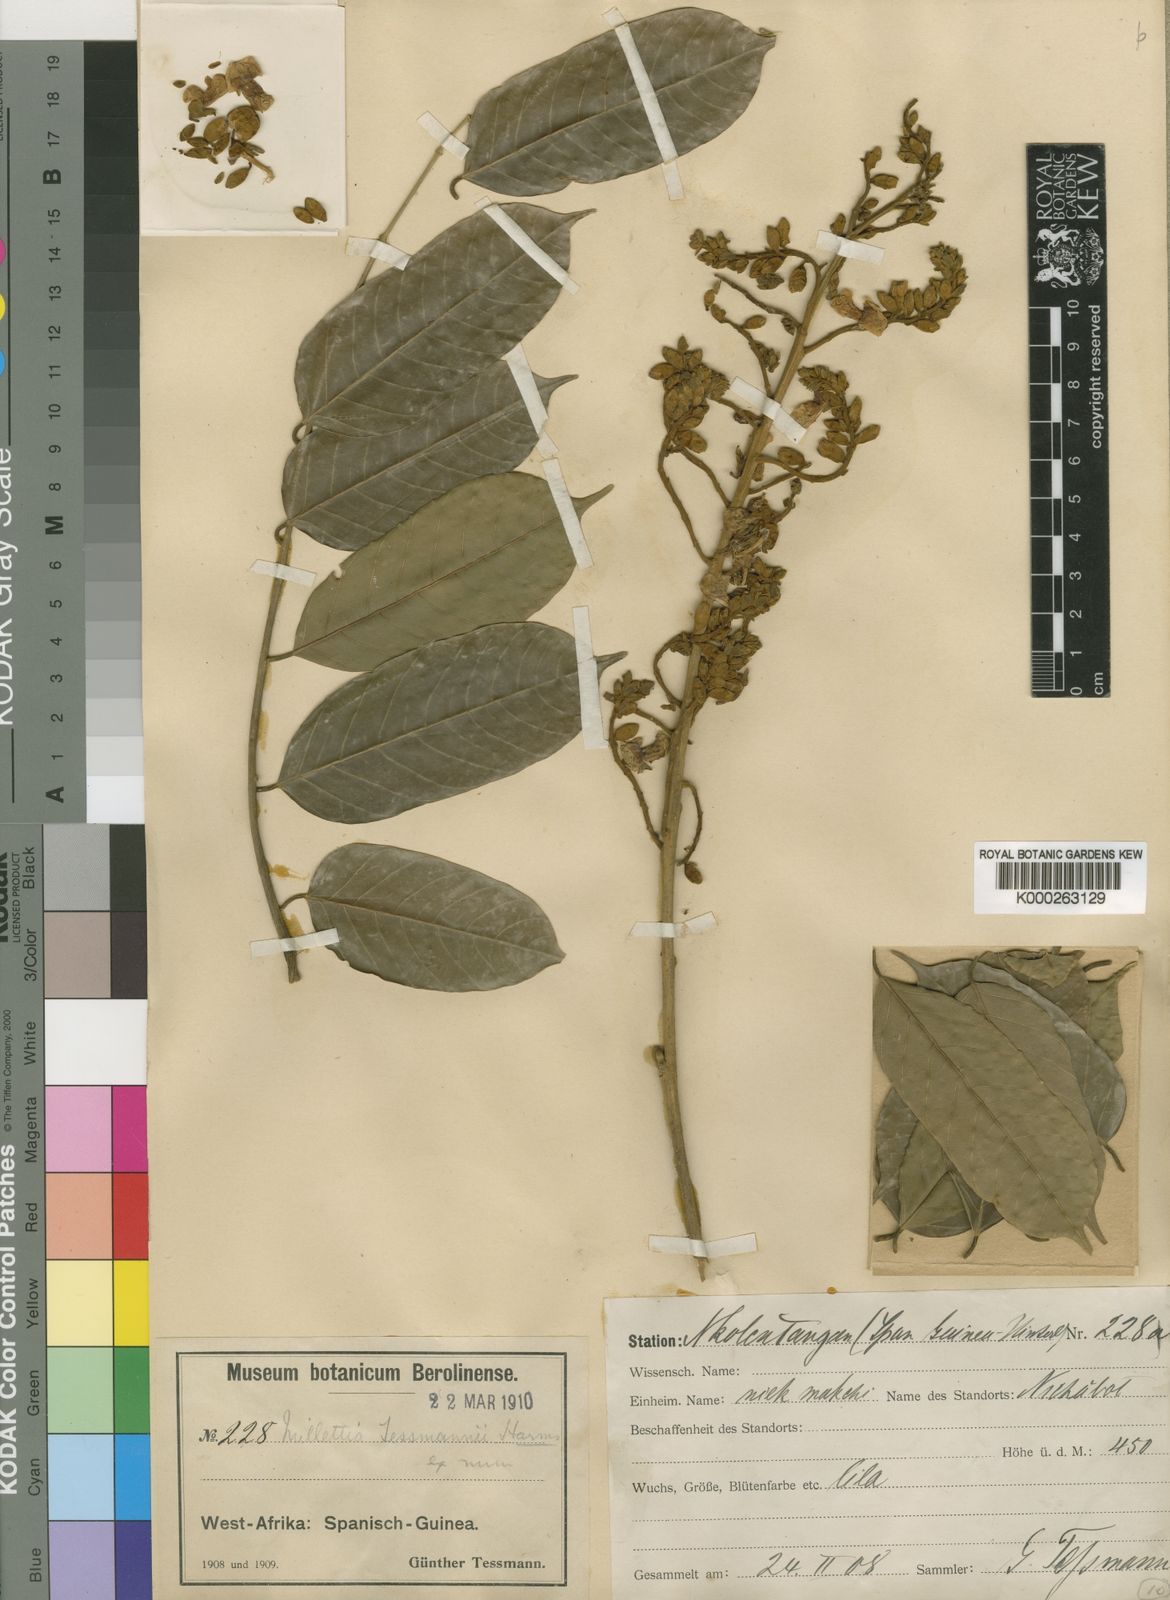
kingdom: Plantae
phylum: Tracheophyta
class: Magnoliopsida
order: Fabales
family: Fabaceae
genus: Millettia
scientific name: Millettia tessmannii
